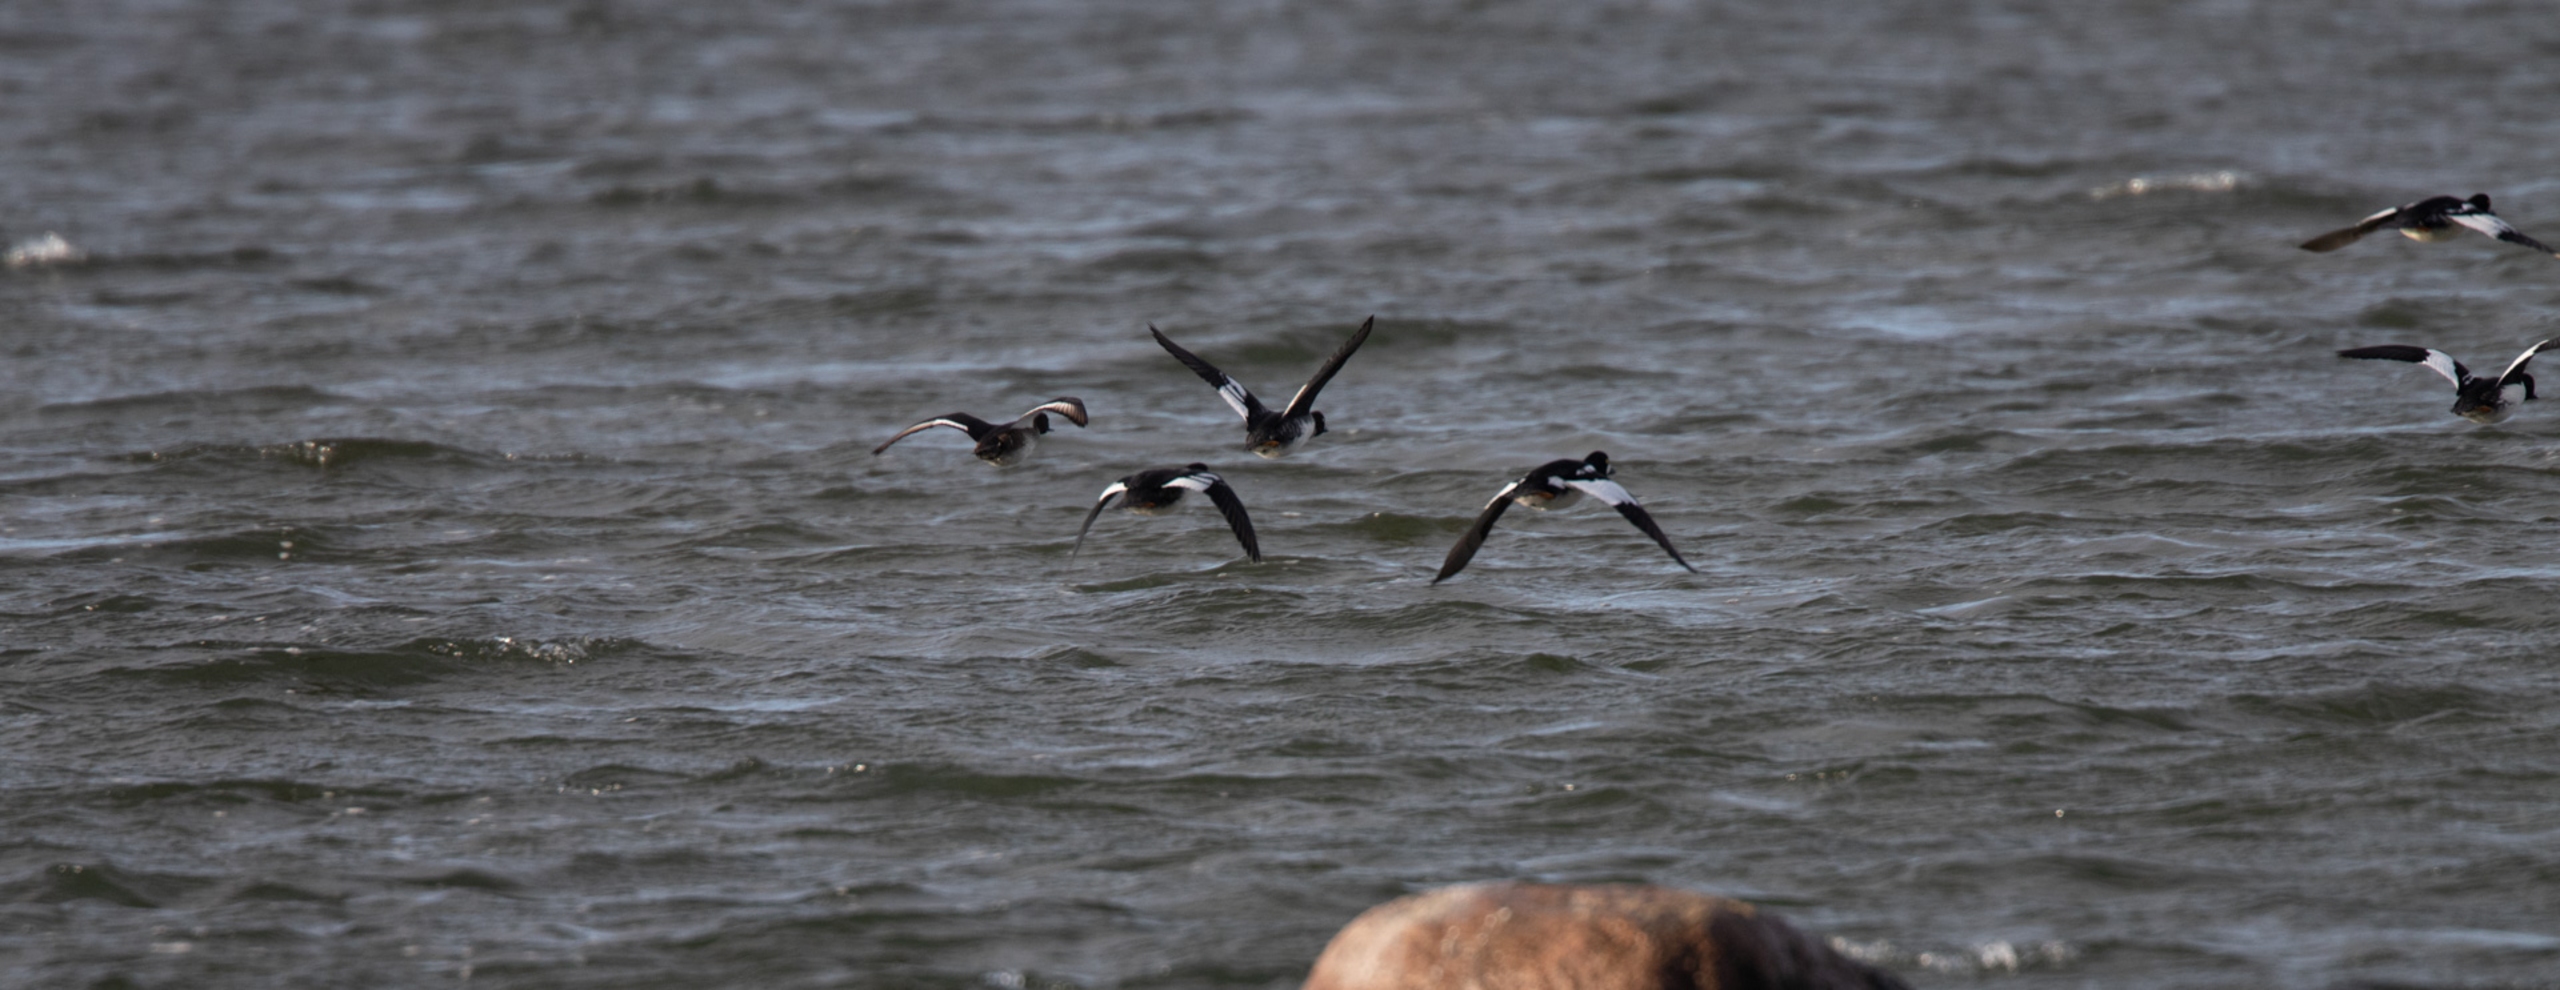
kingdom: Animalia
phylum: Chordata
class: Aves
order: Anseriformes
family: Anatidae
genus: Bucephala
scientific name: Bucephala clangula
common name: Hvinand
